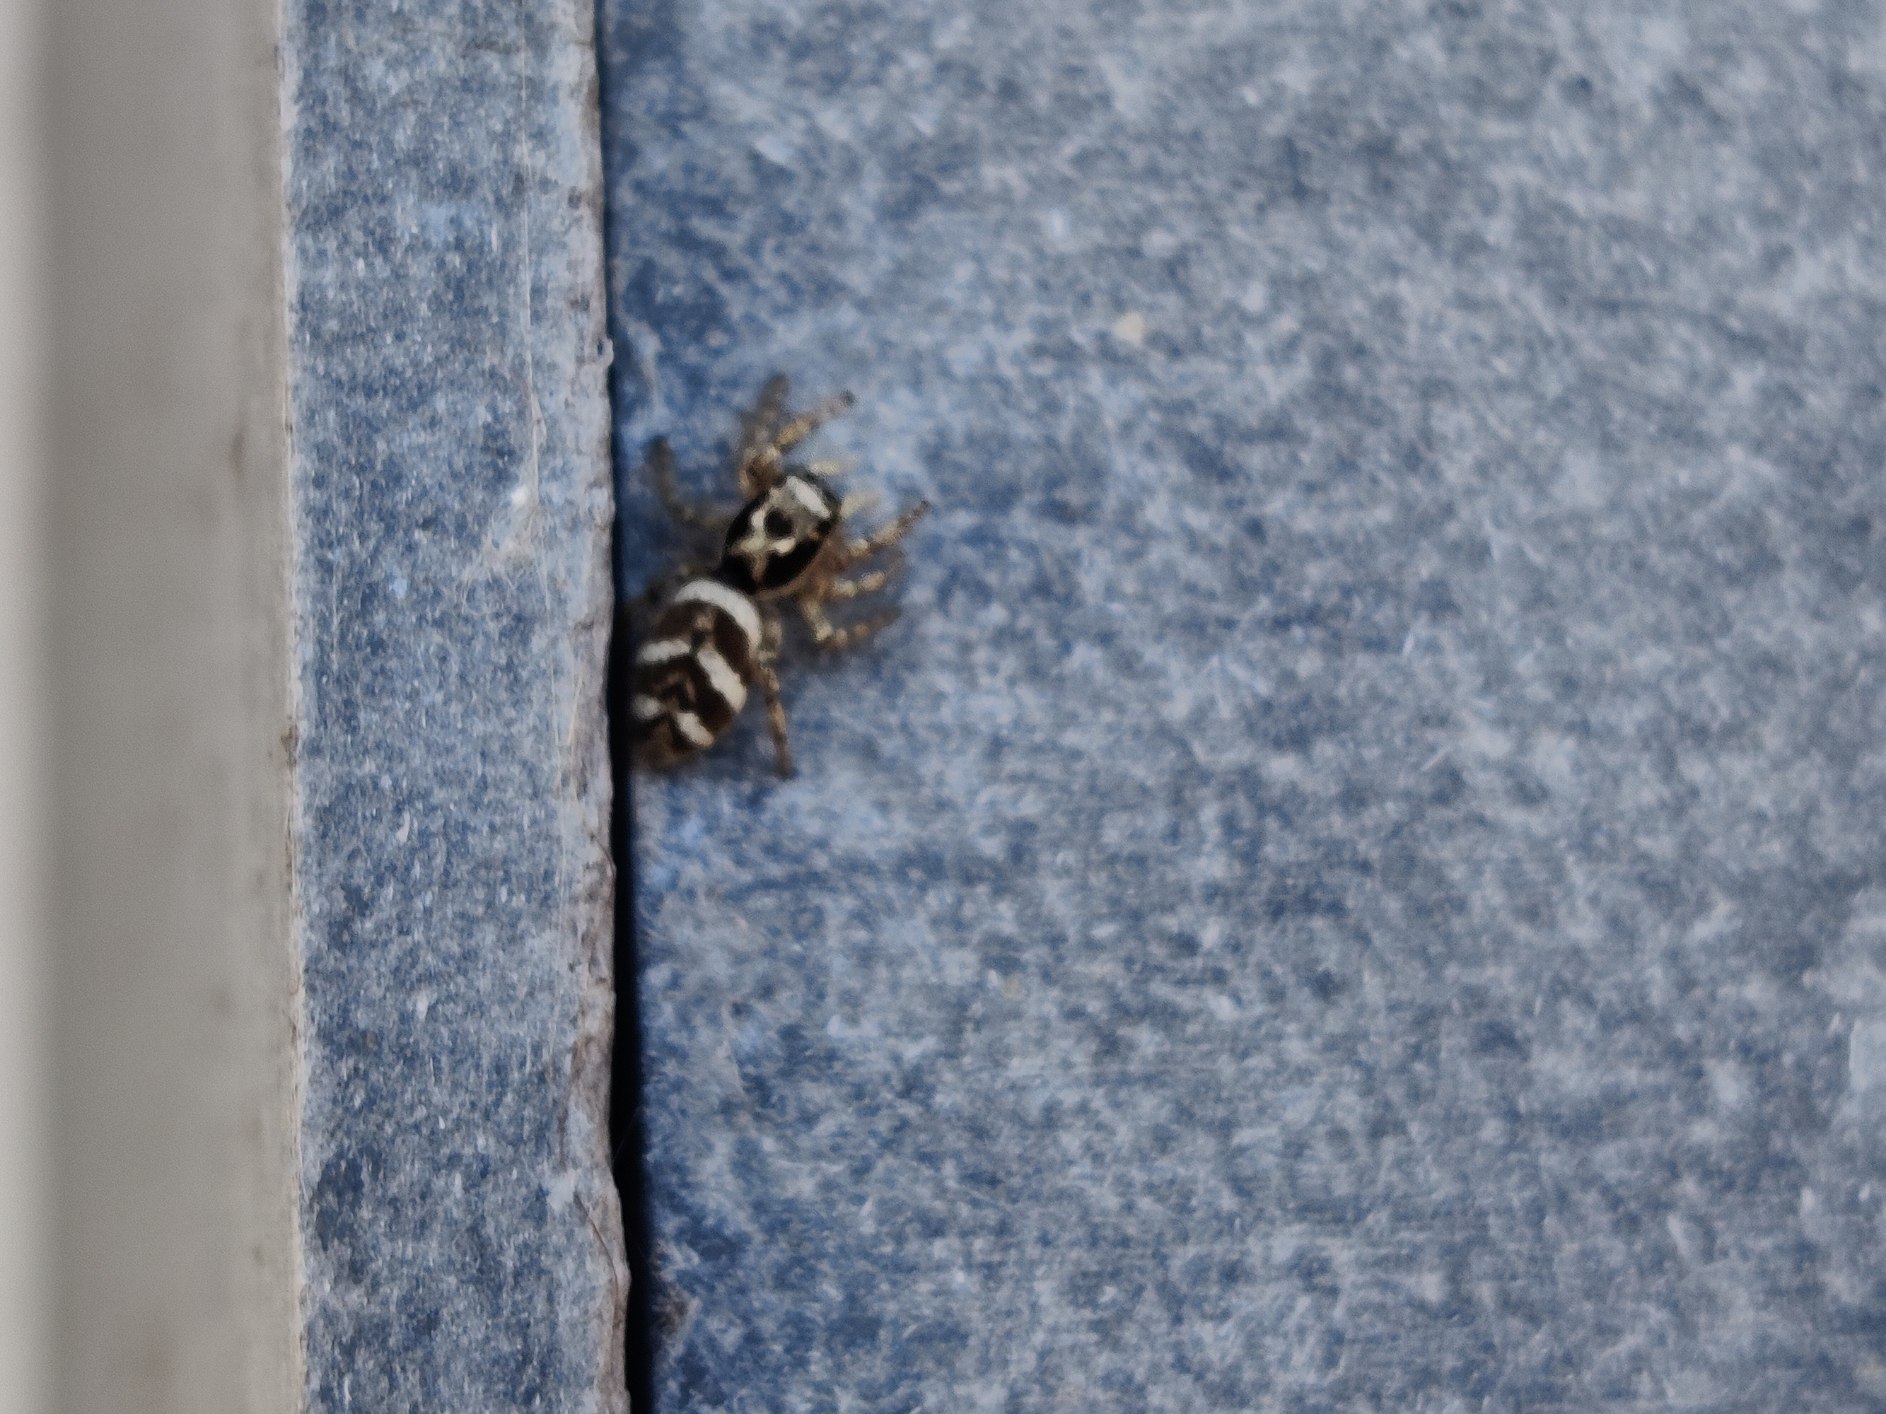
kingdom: Animalia
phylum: Arthropoda
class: Arachnida
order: Araneae
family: Salticidae
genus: Salticus
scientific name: Salticus scenicus
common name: Almindelig zebraedderkop
